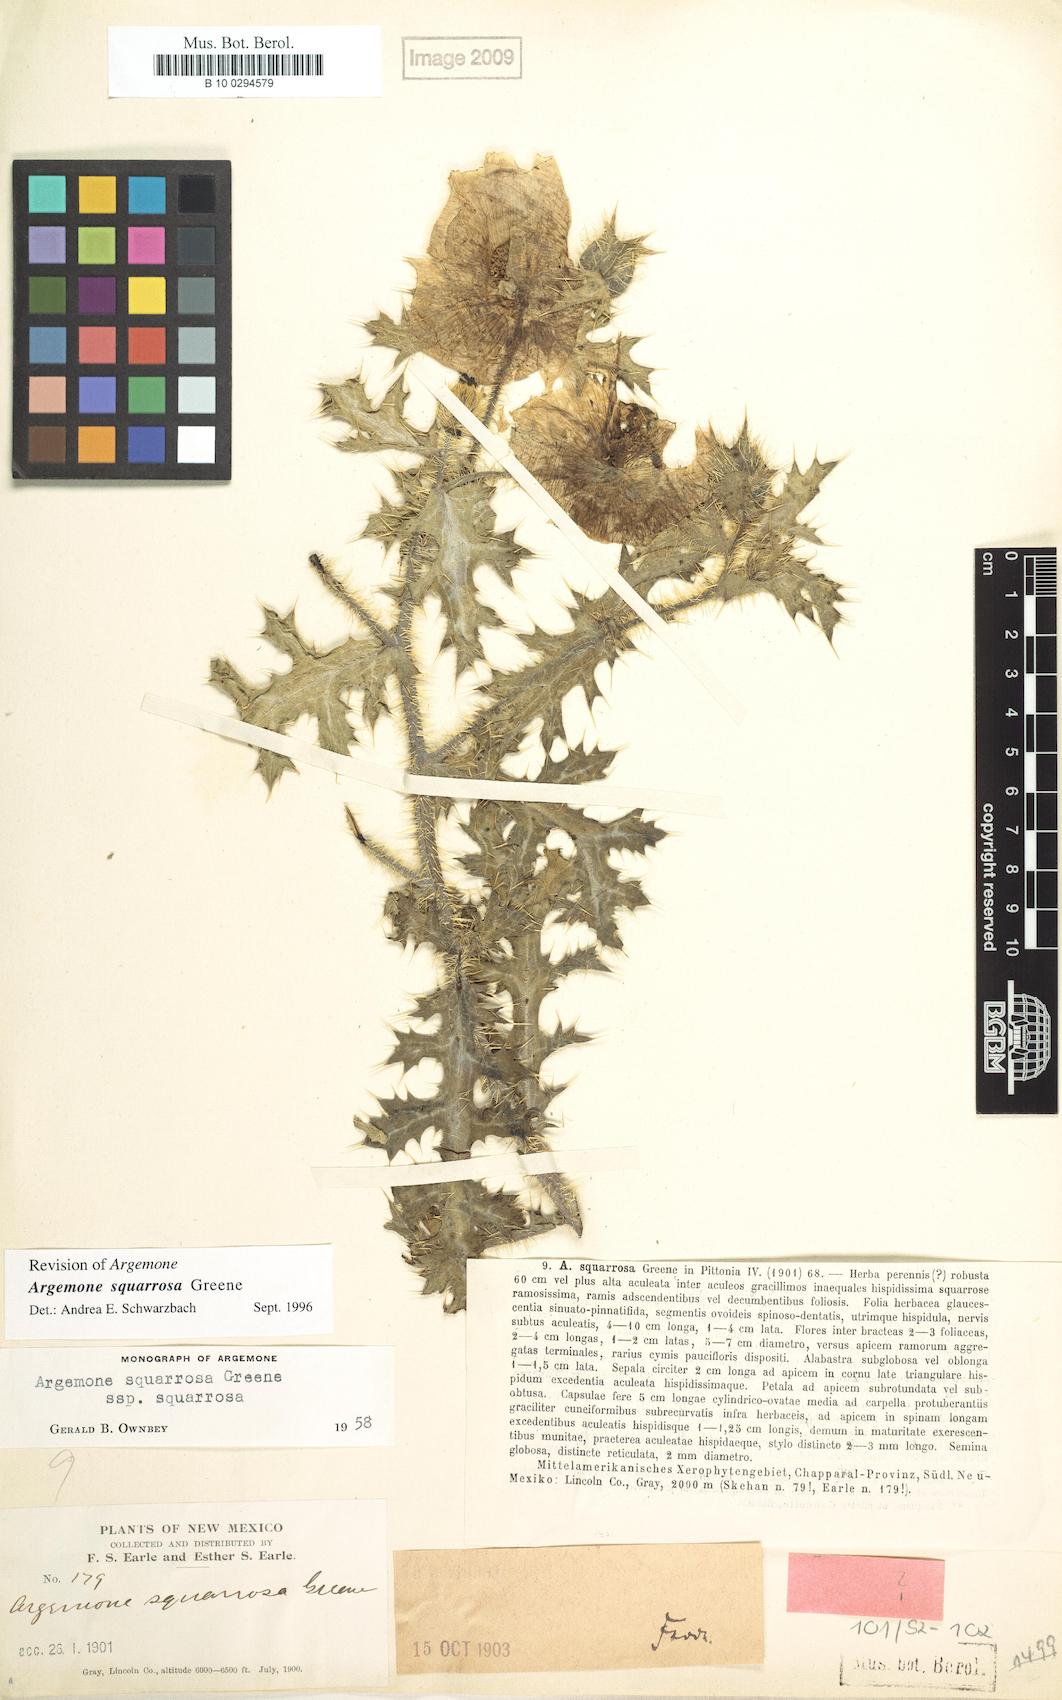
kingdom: Plantae
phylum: Tracheophyta
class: Magnoliopsida
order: Ranunculales
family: Papaveraceae
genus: Argemone
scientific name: Argemone squarrosa
